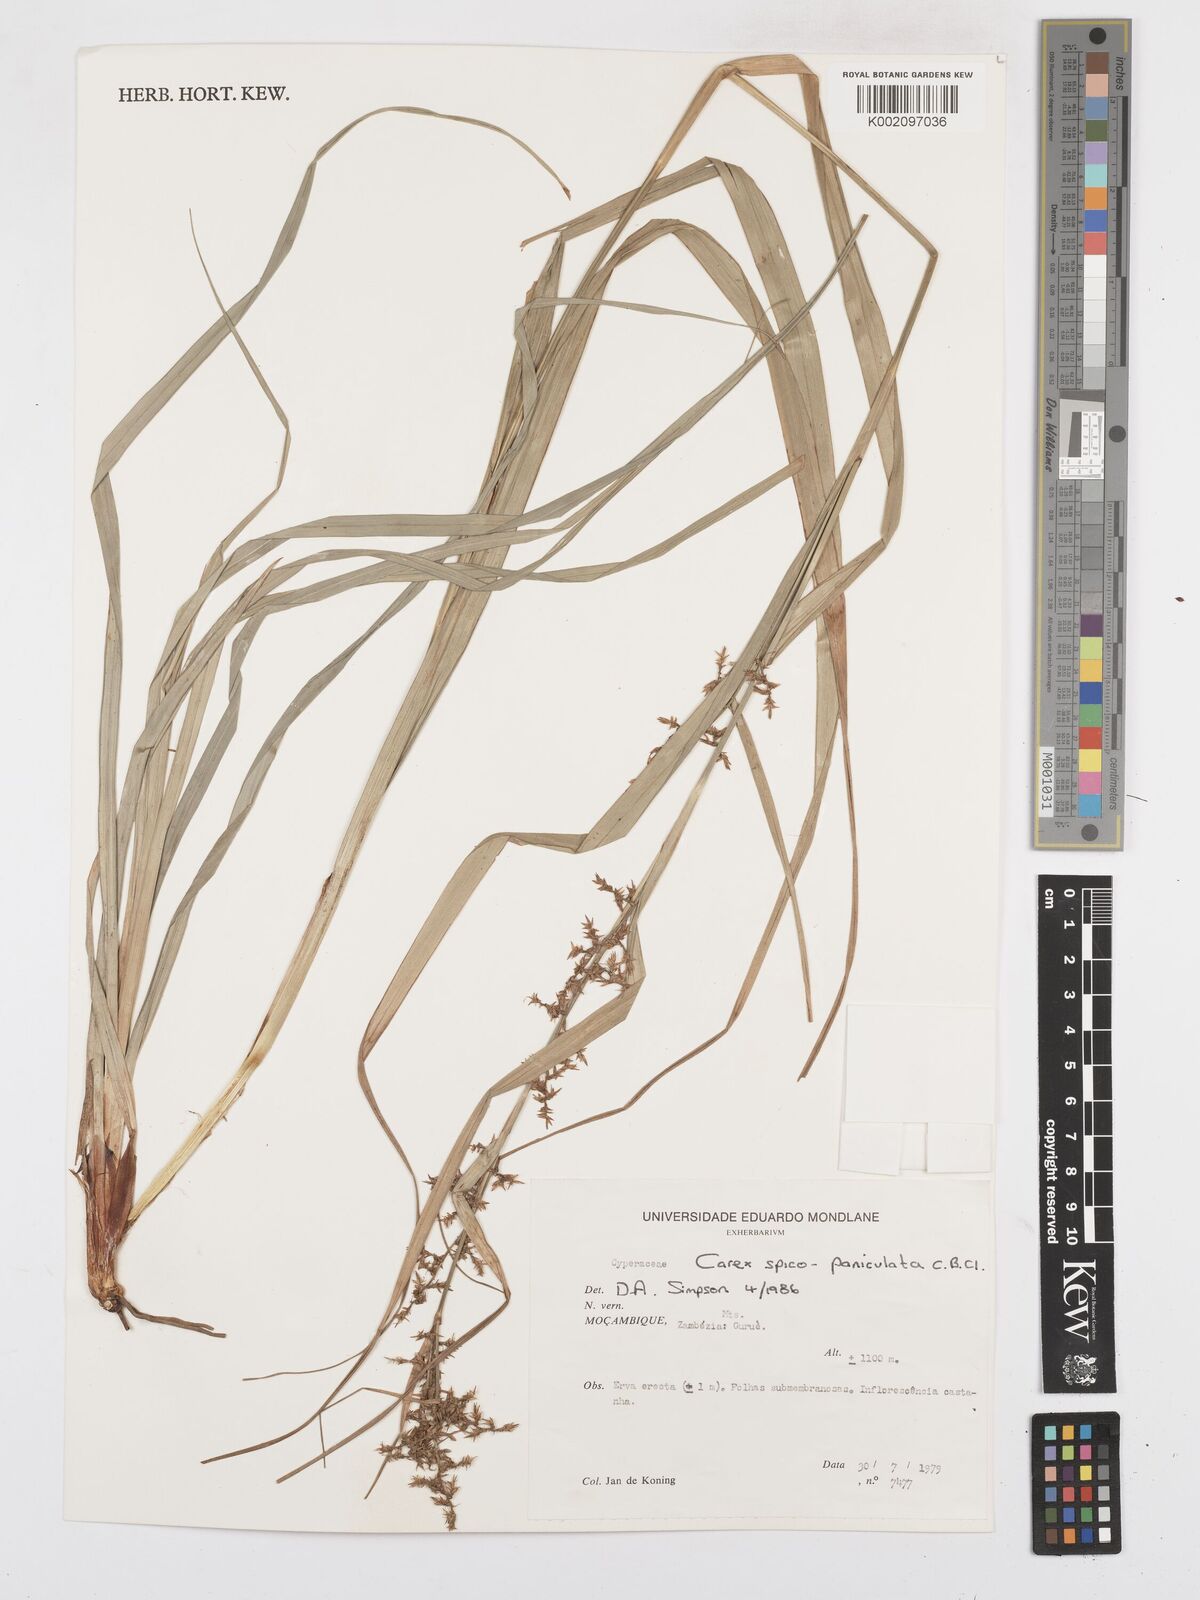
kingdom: Plantae
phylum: Tracheophyta
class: Liliopsida
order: Poales
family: Cyperaceae
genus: Carex
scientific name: Carex spicatopaniculata
